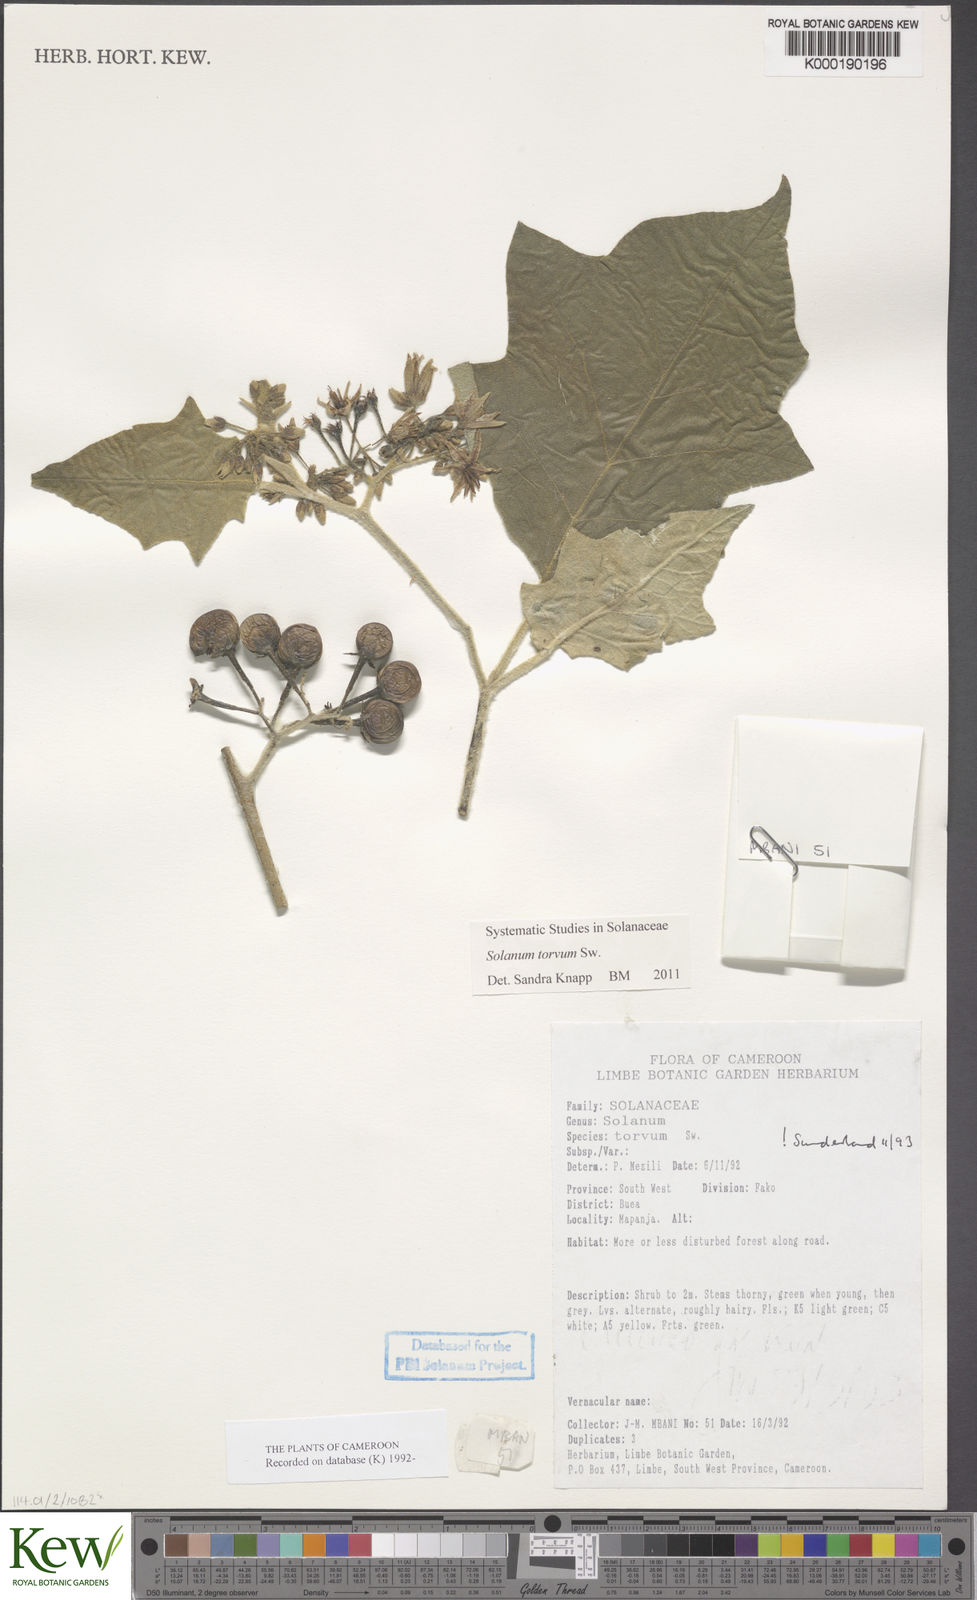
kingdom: Plantae
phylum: Tracheophyta
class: Magnoliopsida
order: Solanales
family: Solanaceae
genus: Solanum
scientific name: Solanum torvum
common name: Turkey berry
